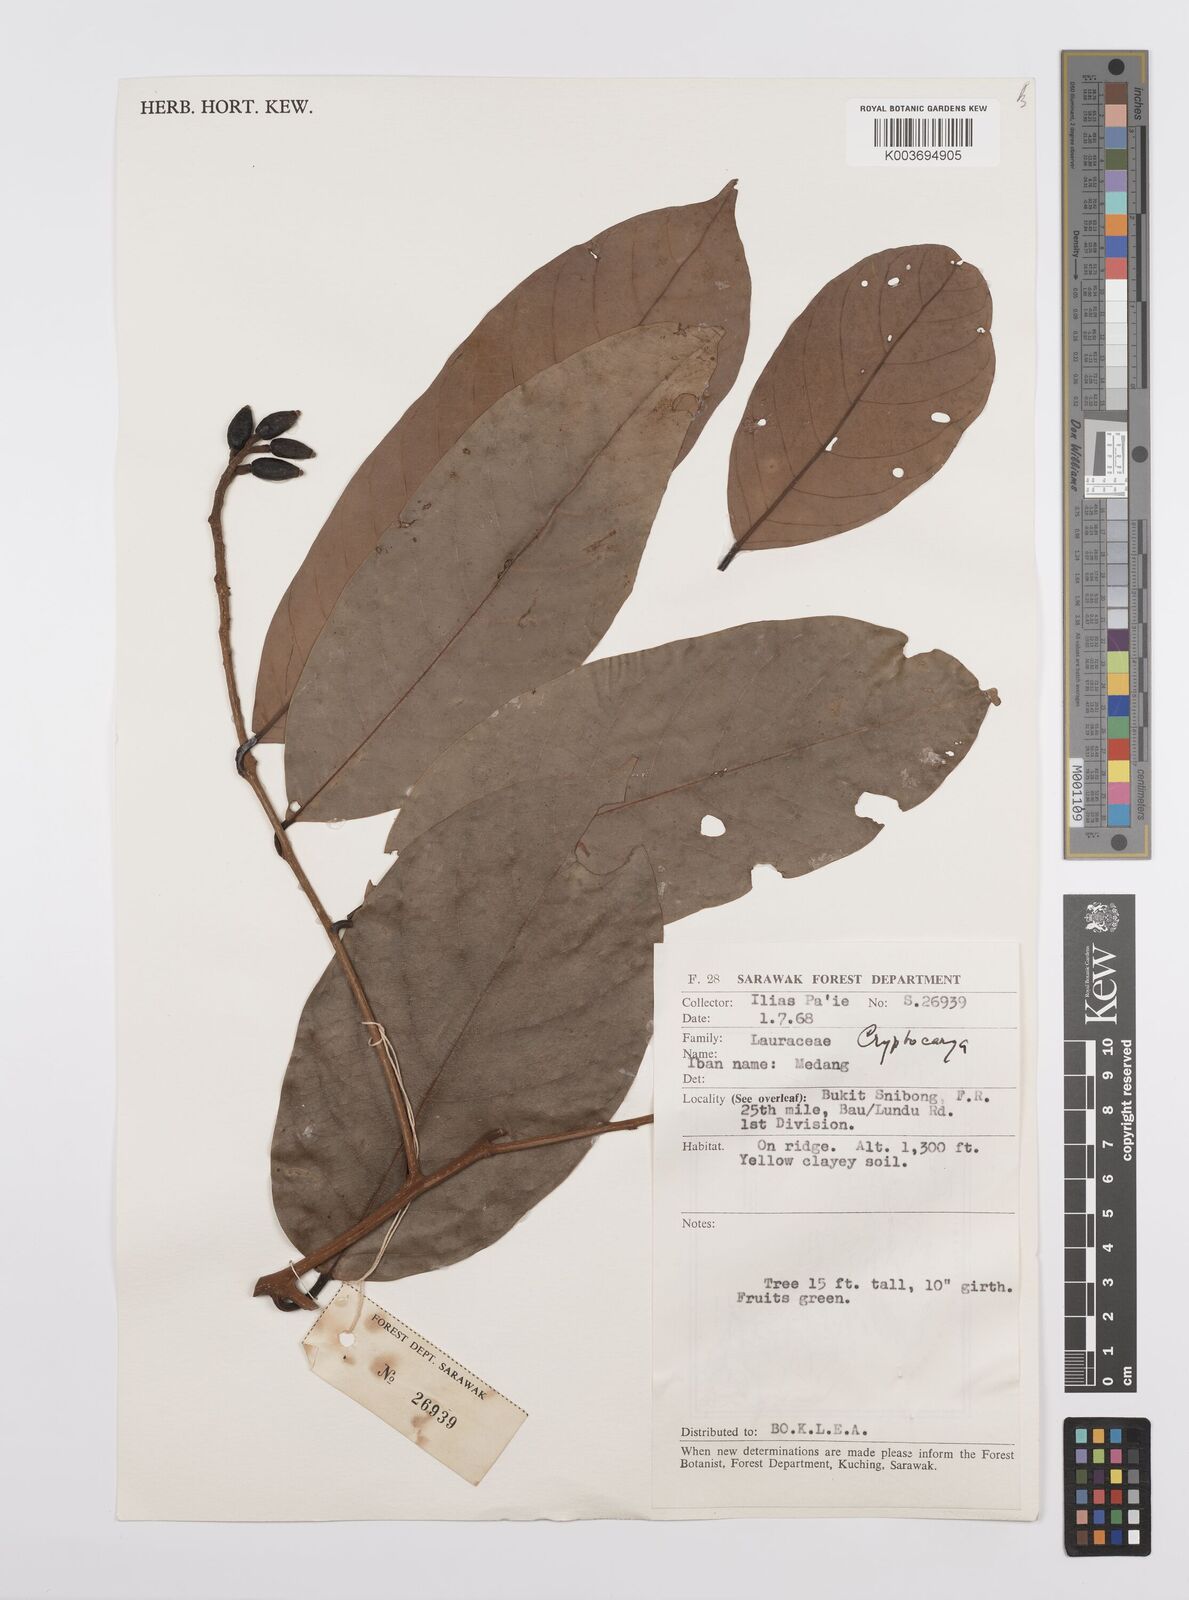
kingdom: Plantae
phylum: Tracheophyta
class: Magnoliopsida
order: Laurales
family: Lauraceae
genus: Cryptocarya
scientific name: Cryptocarya
